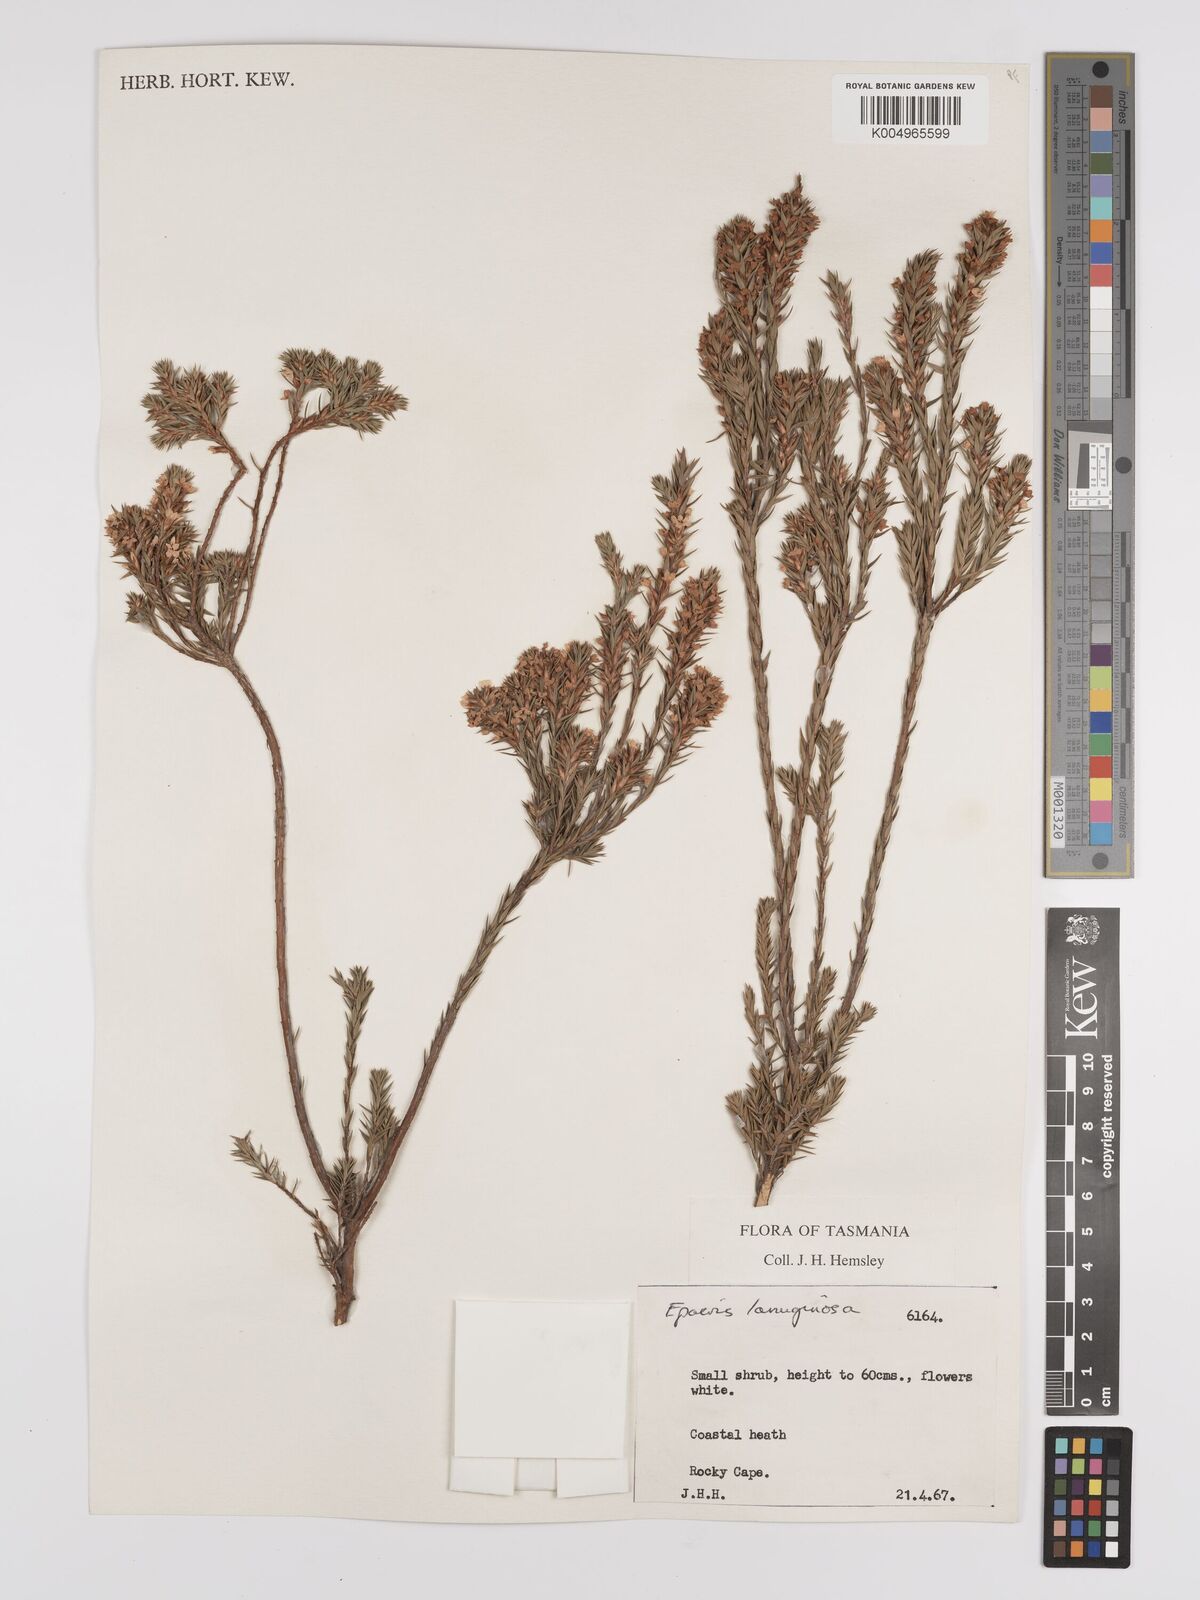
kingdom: Plantae
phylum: Tracheophyta
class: Magnoliopsida
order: Ericales
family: Ericaceae
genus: Epacris
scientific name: Epacris lanuginosa
